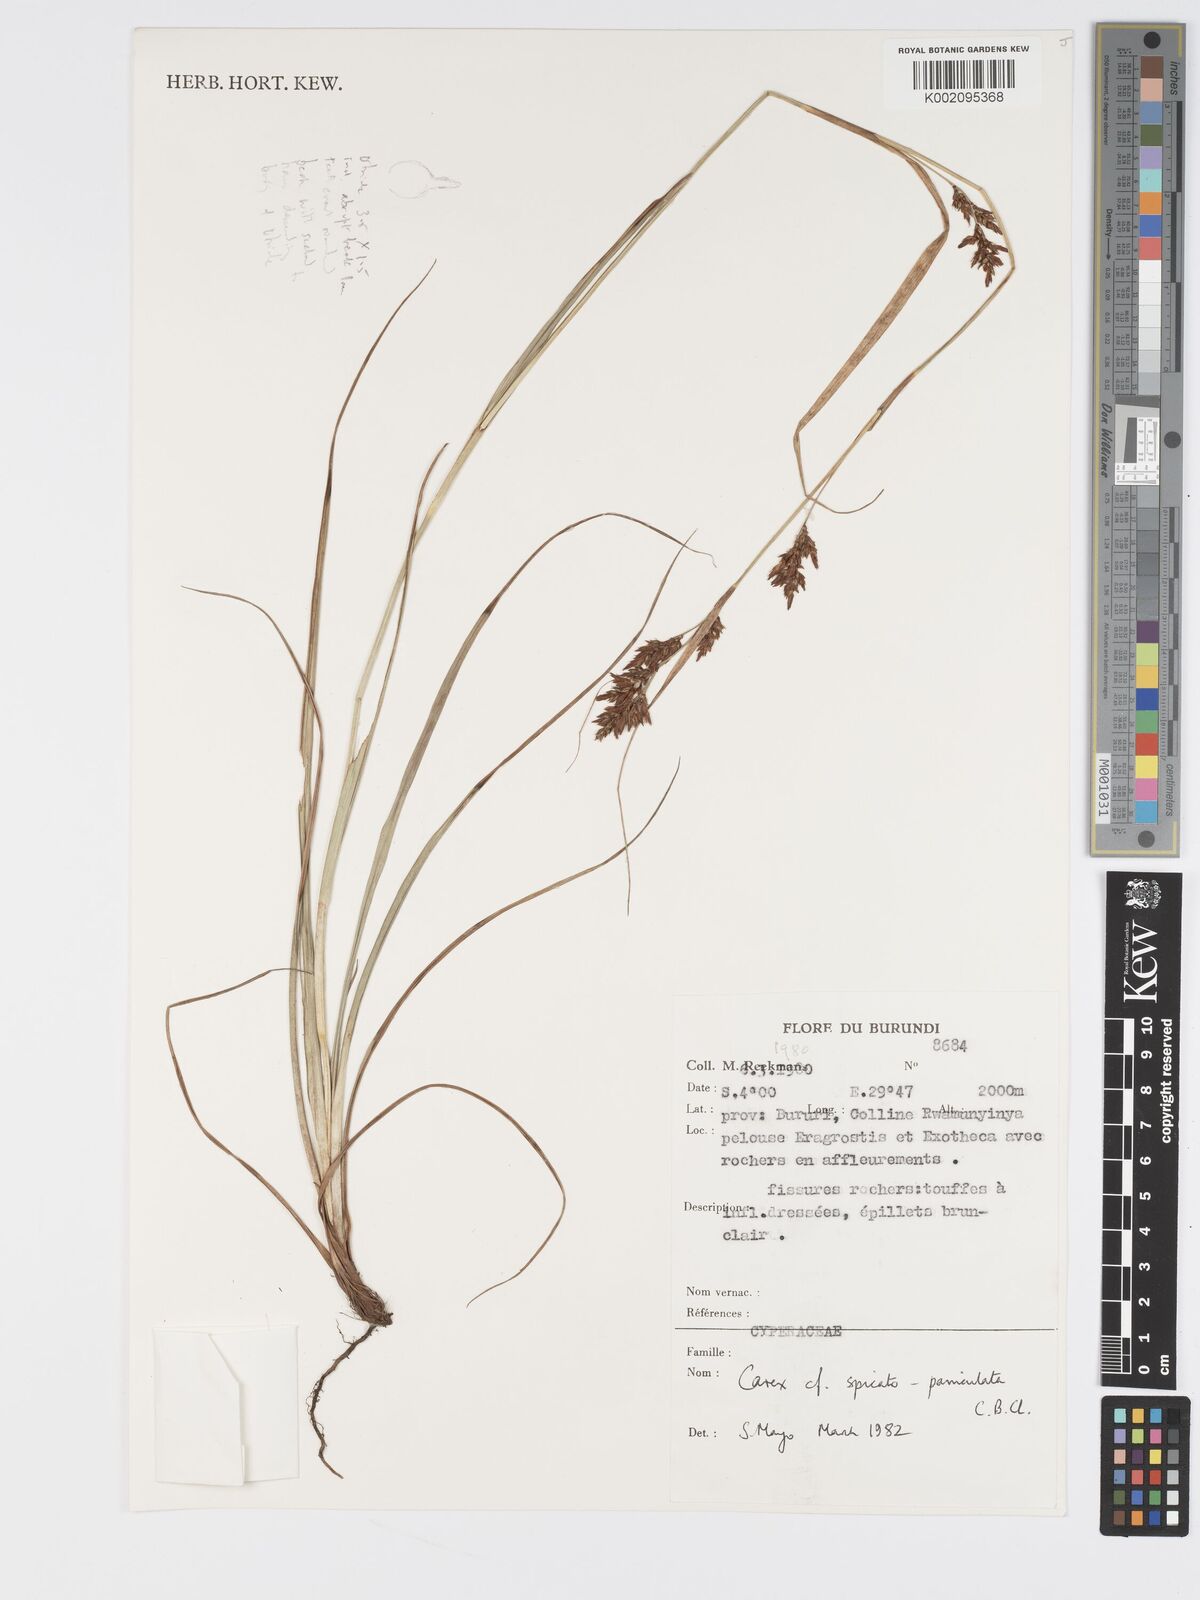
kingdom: Plantae
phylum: Tracheophyta
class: Liliopsida
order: Poales
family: Cyperaceae
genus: Carex
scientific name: Carex spicatopaniculata
